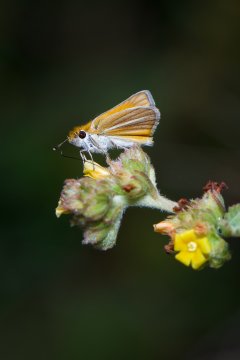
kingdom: Animalia
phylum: Arthropoda
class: Insecta
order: Lepidoptera
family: Hesperiidae
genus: Copaeodes
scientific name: Copaeodes minima
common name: Southern Skipperling
